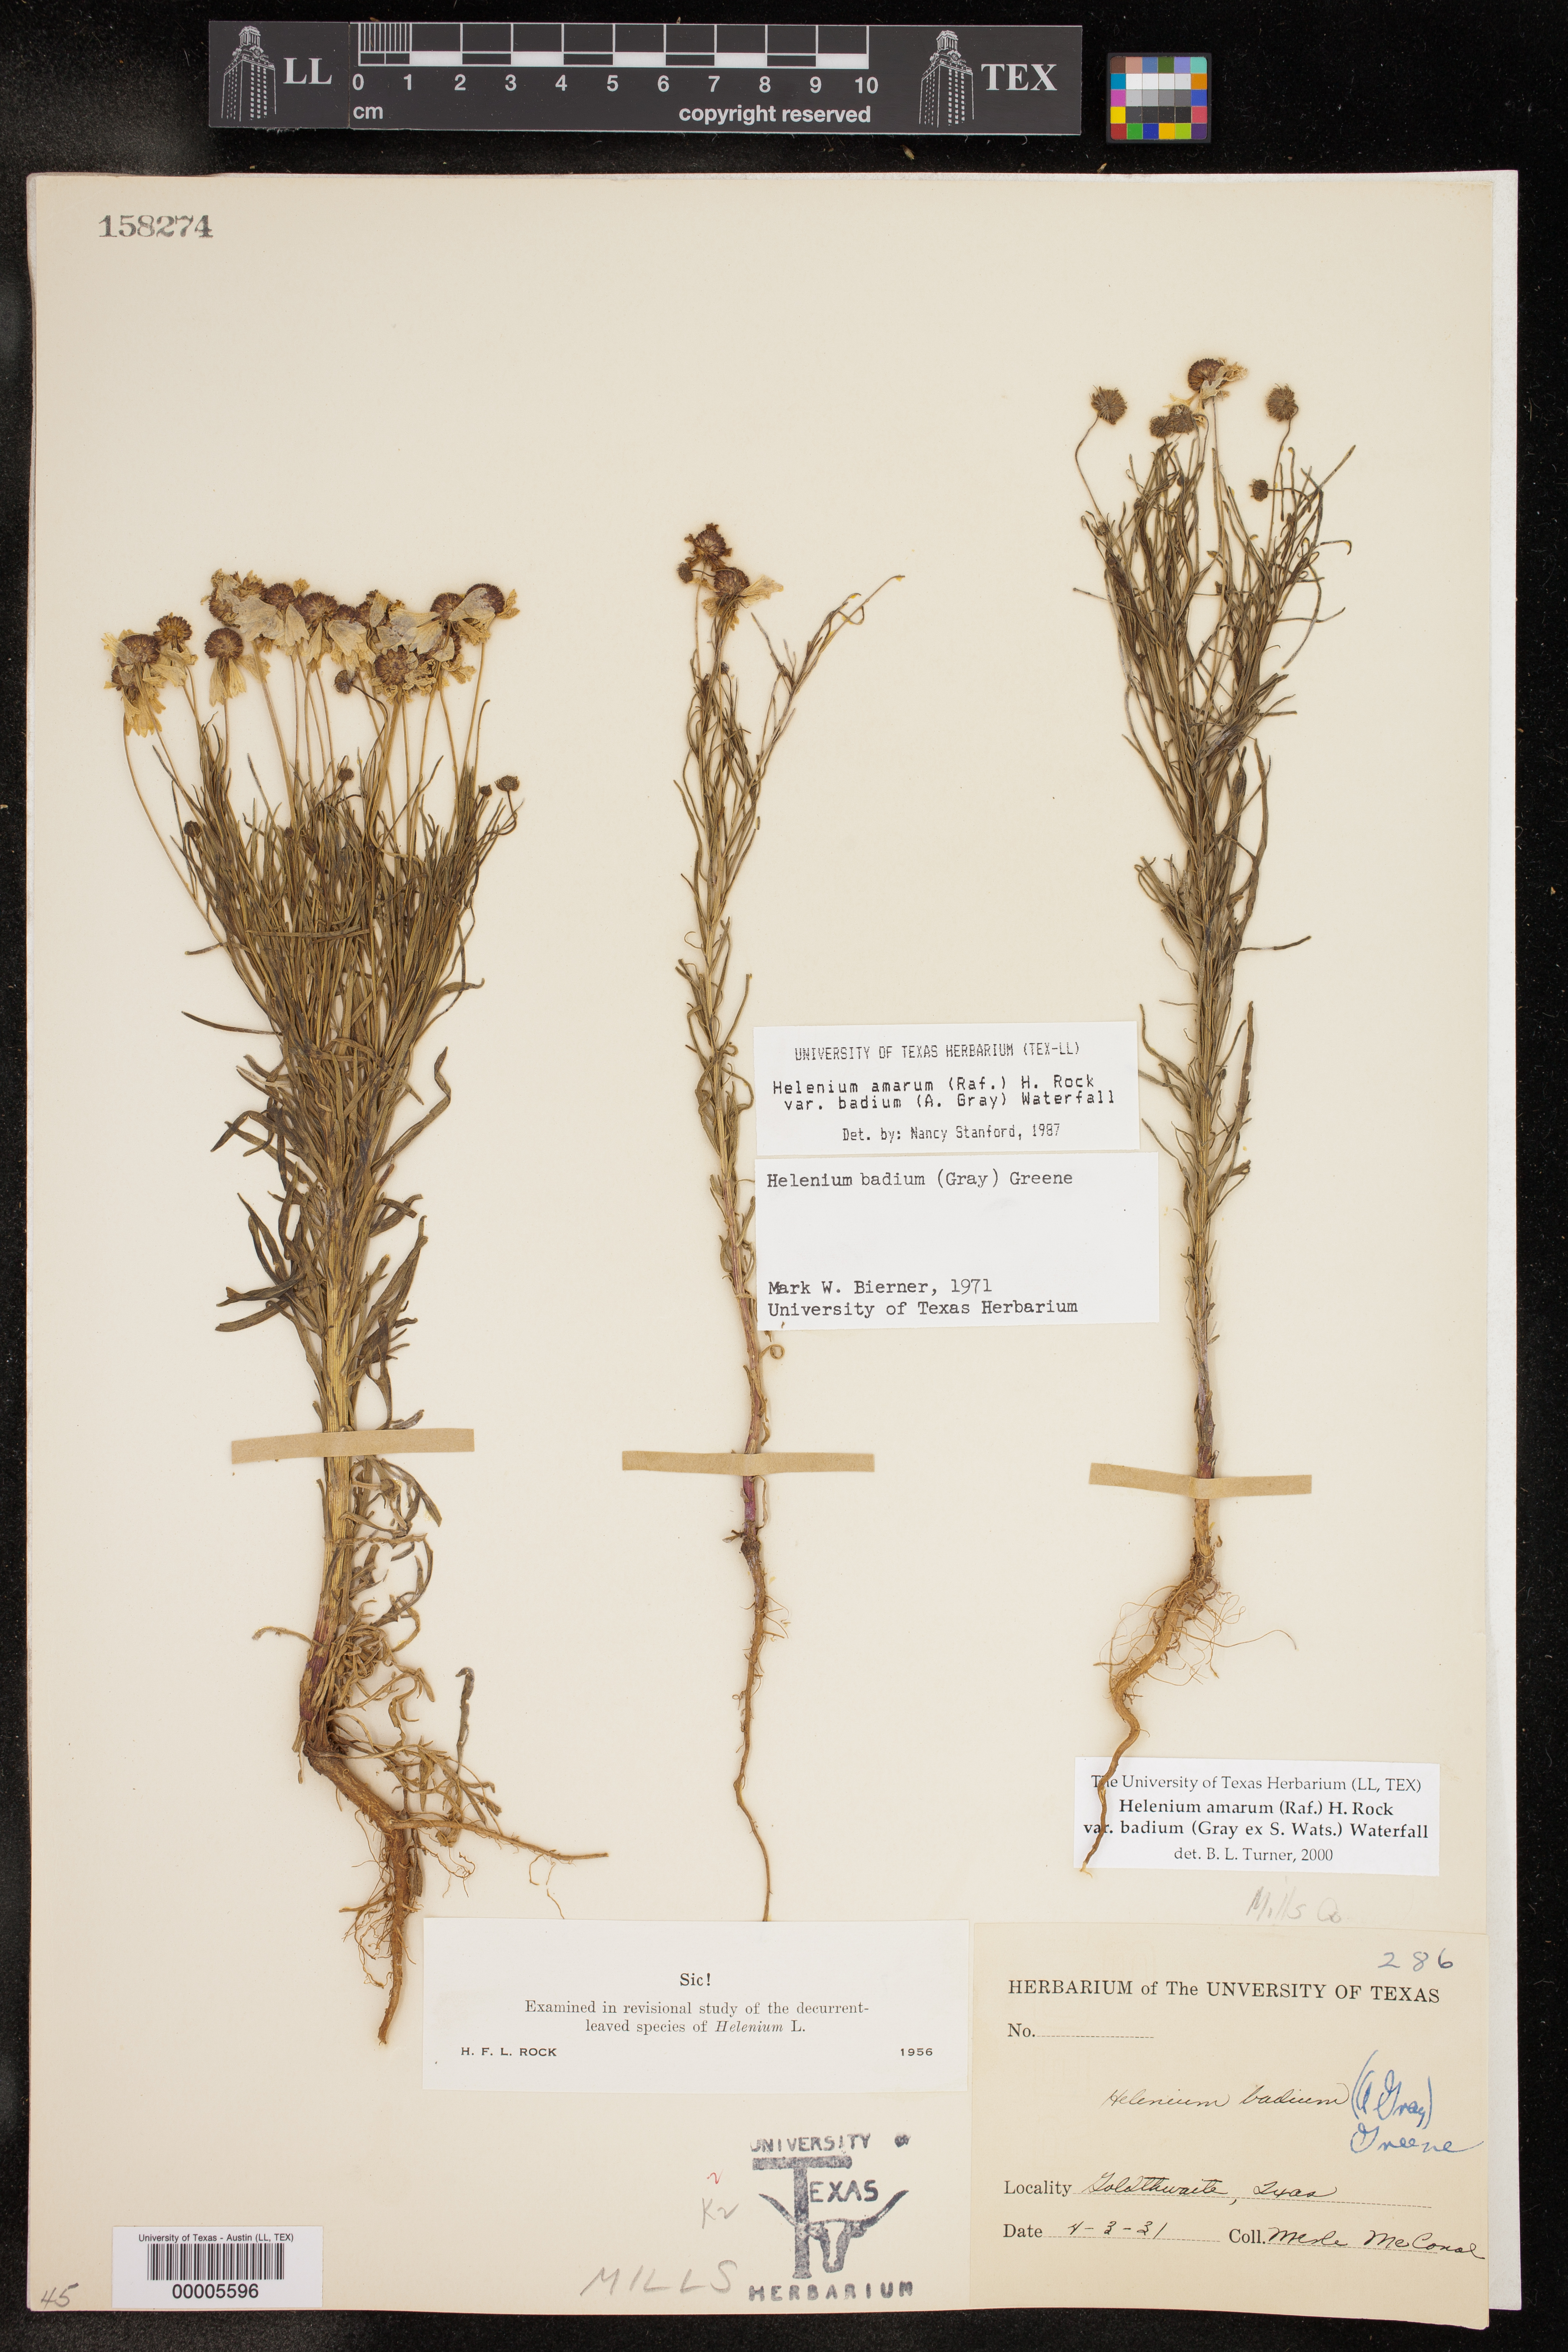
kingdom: Plantae
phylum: Tracheophyta
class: Magnoliopsida
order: Asterales
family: Asteraceae
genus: Helenium
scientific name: Helenium amarum
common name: Bitter sneezeweed
